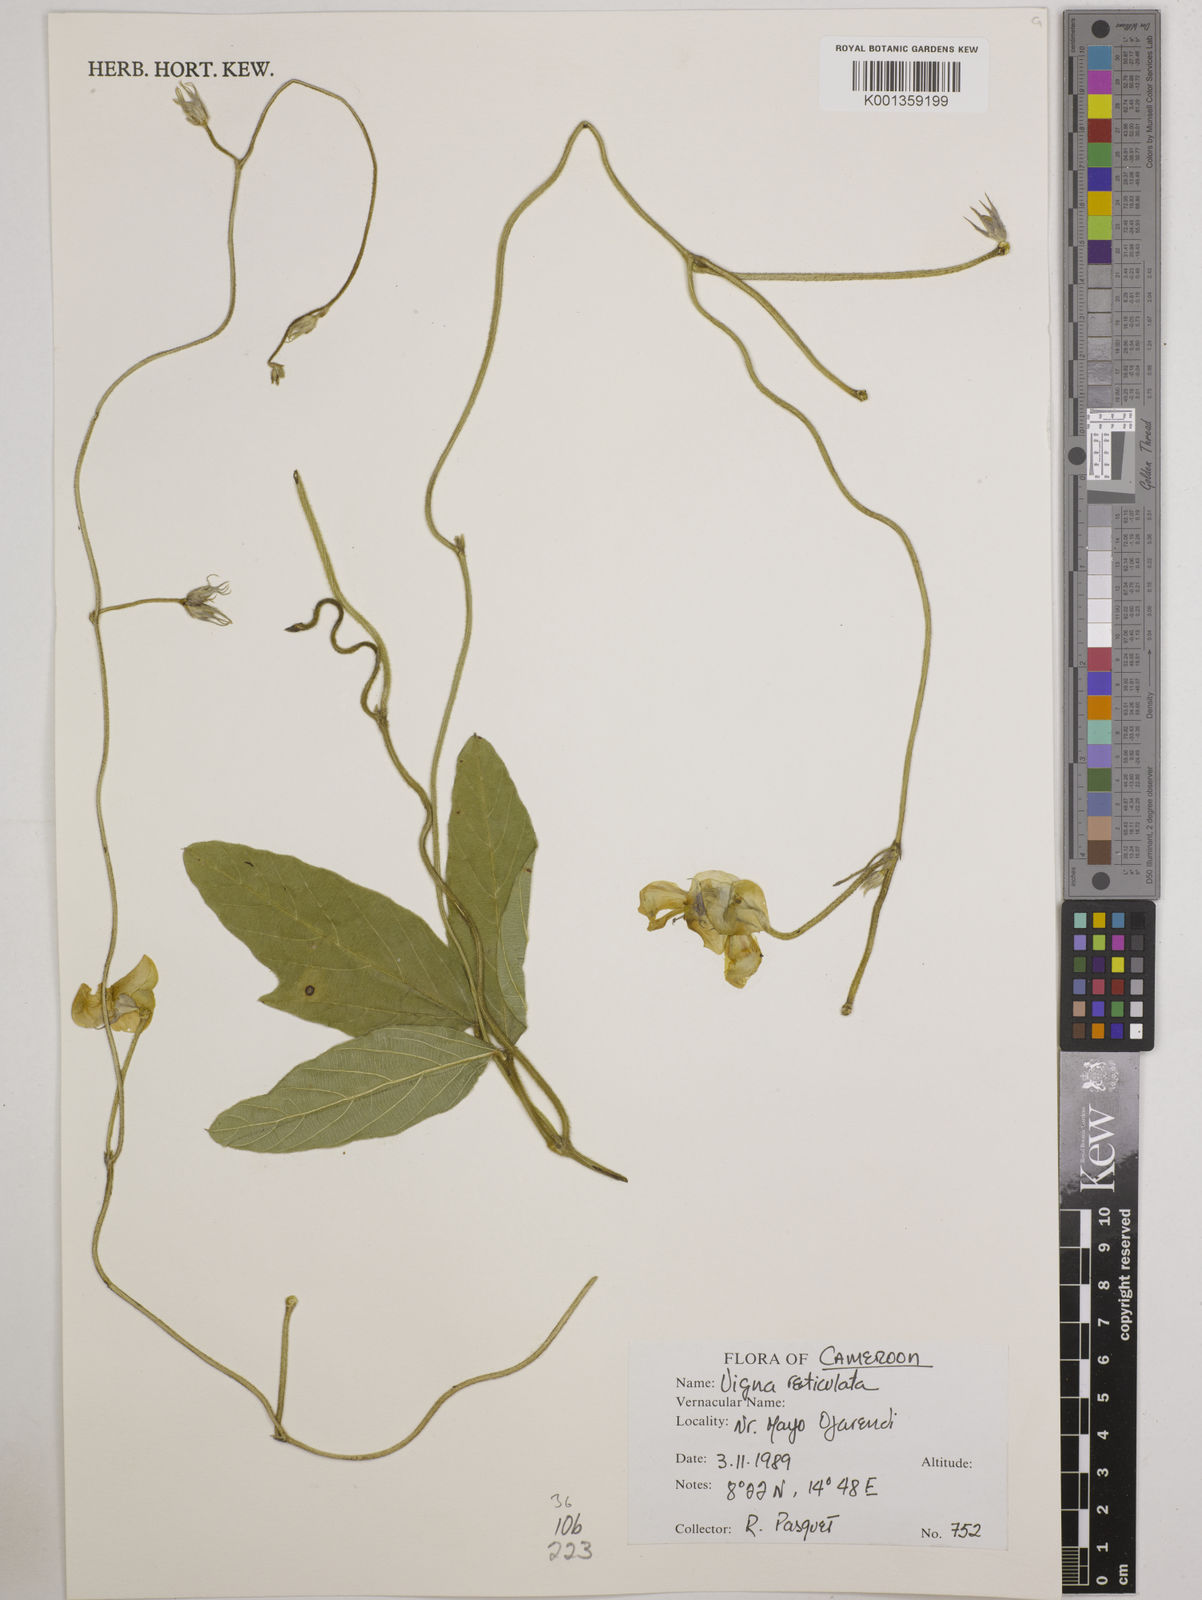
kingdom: Plantae
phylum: Tracheophyta
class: Magnoliopsida
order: Fabales
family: Fabaceae
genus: Vigna
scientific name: Vigna reticulata
